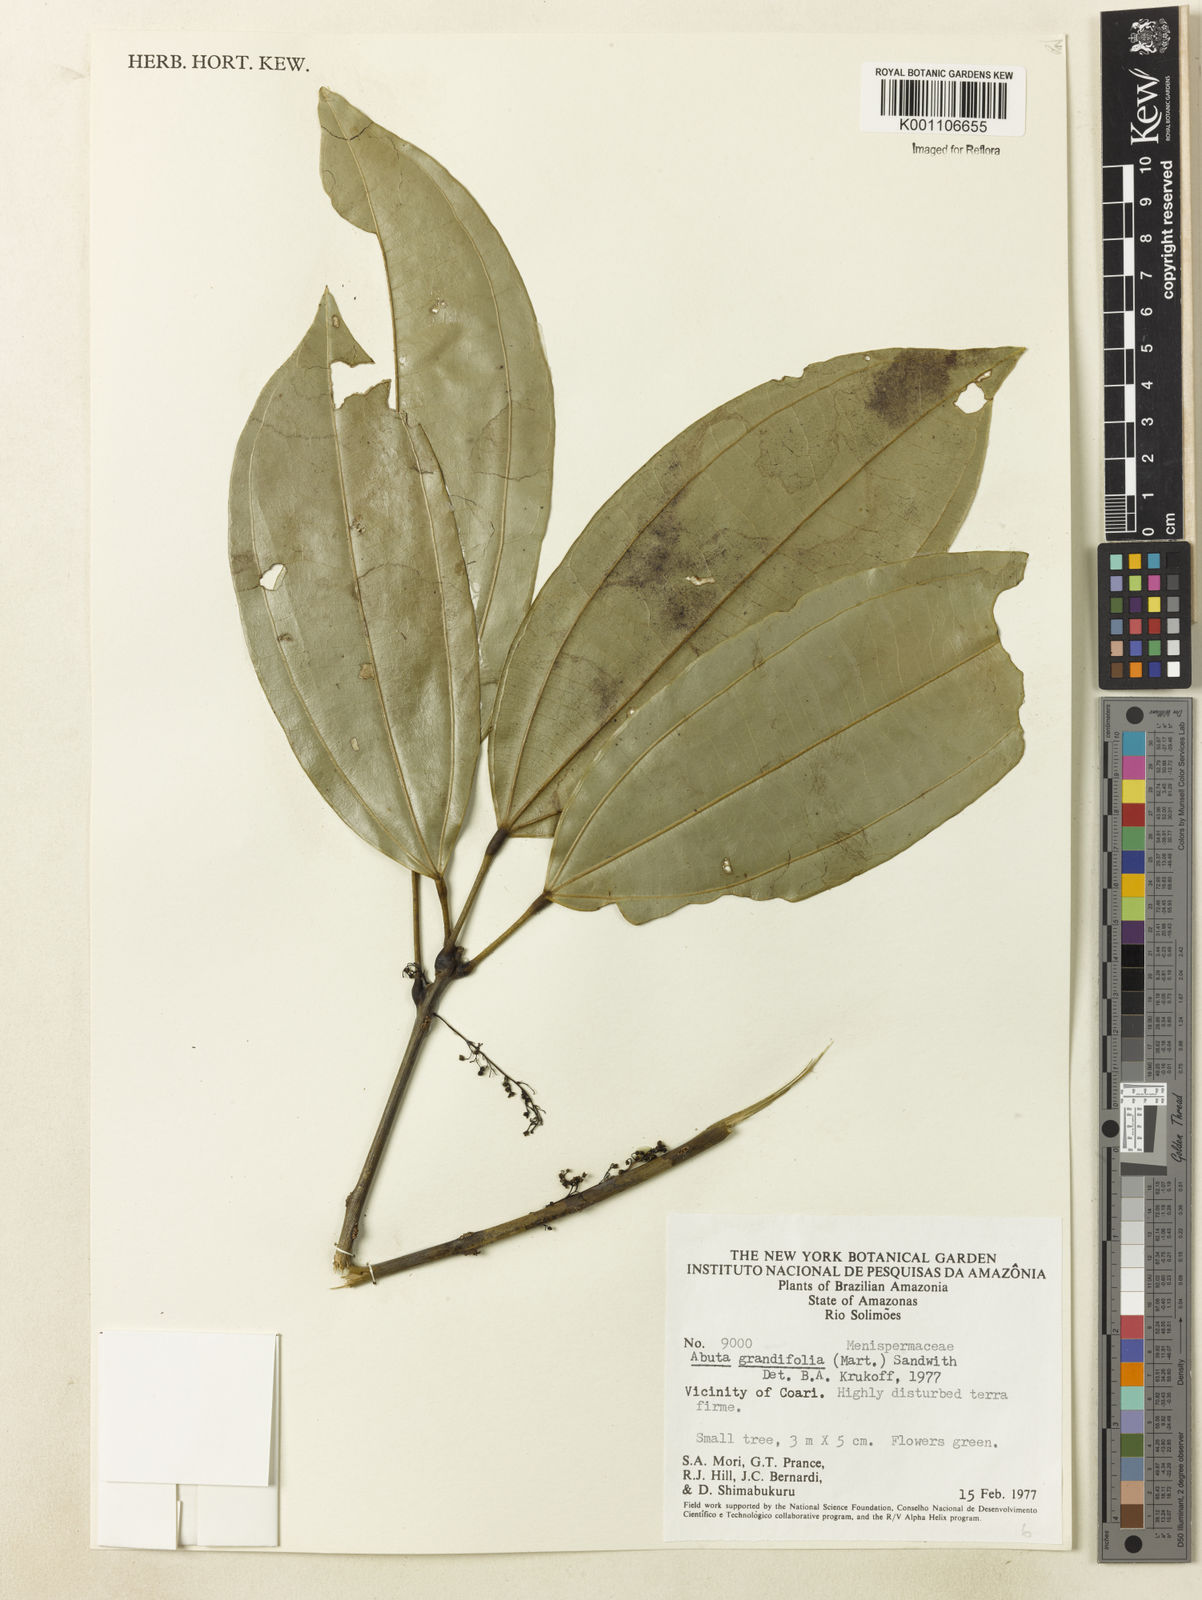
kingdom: Plantae
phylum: Tracheophyta
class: Magnoliopsida
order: Ranunculales
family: Menispermaceae
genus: Abuta
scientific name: Abuta grandifolia
